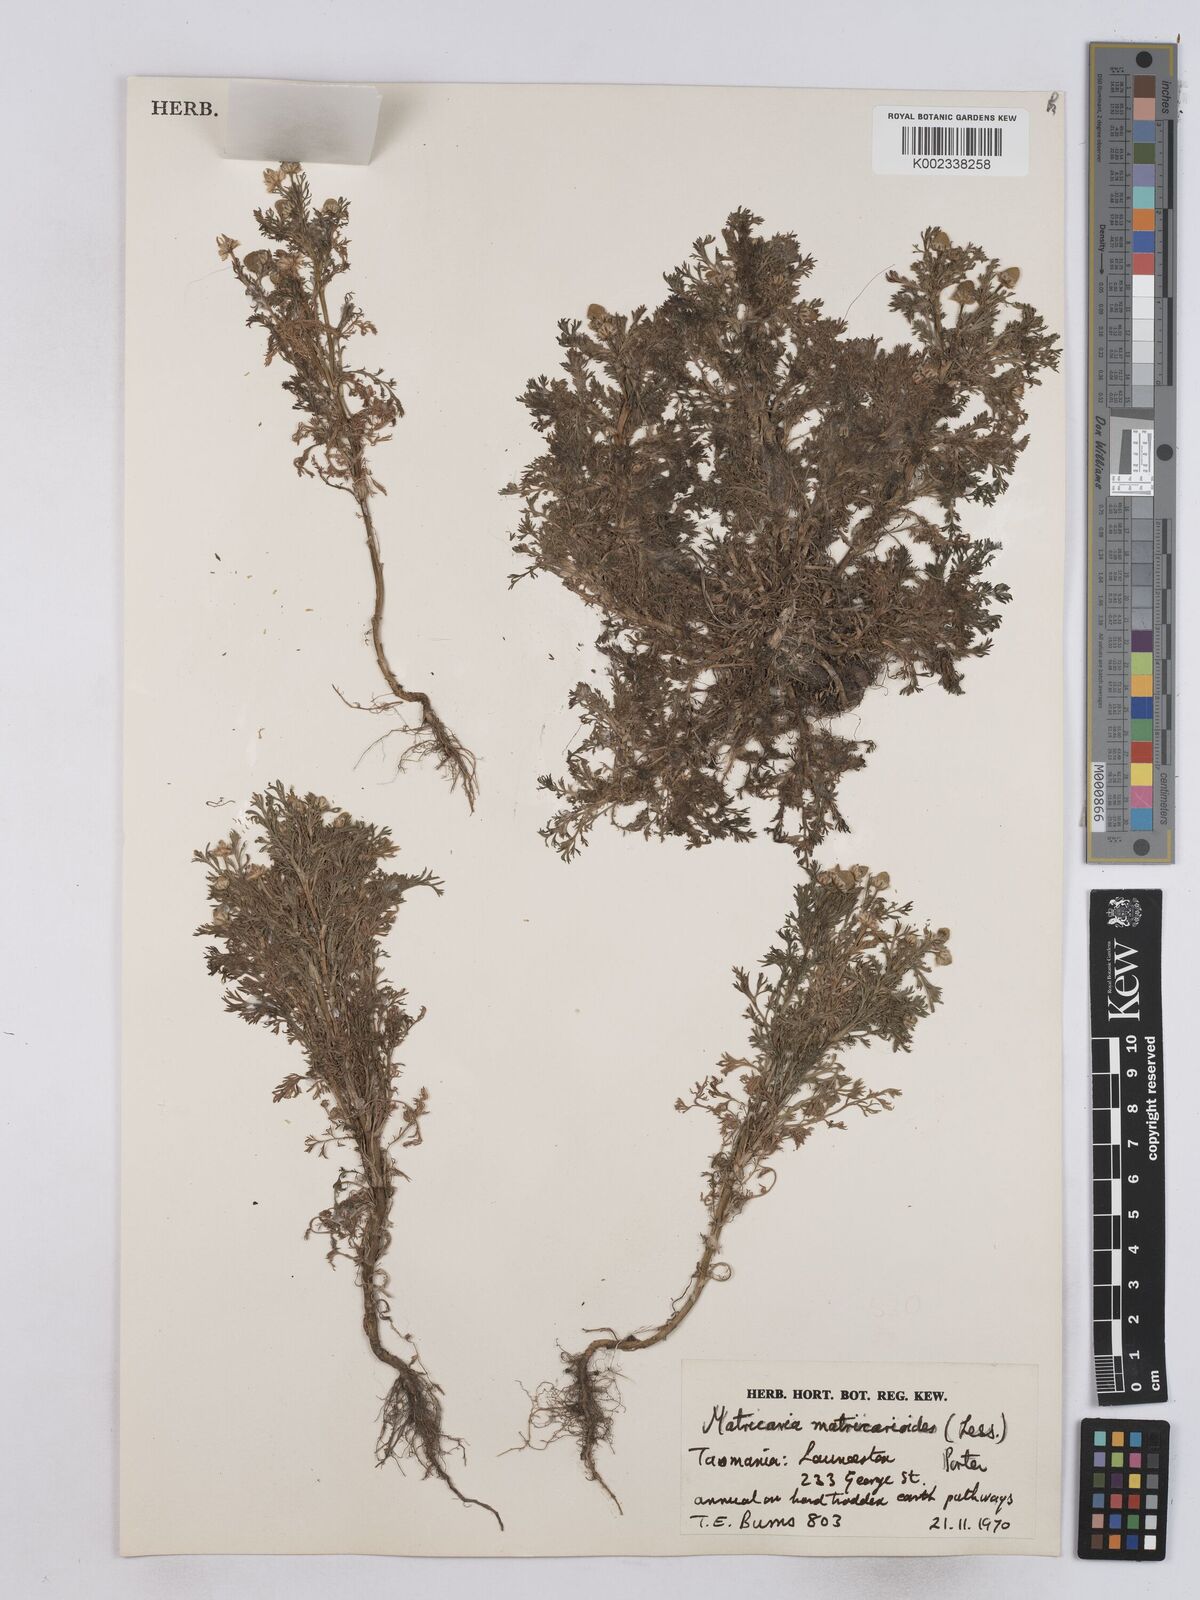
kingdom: Plantae
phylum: Tracheophyta
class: Magnoliopsida
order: Asterales
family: Asteraceae
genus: Matricaria
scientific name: Matricaria discoidea
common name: Disc mayweed
